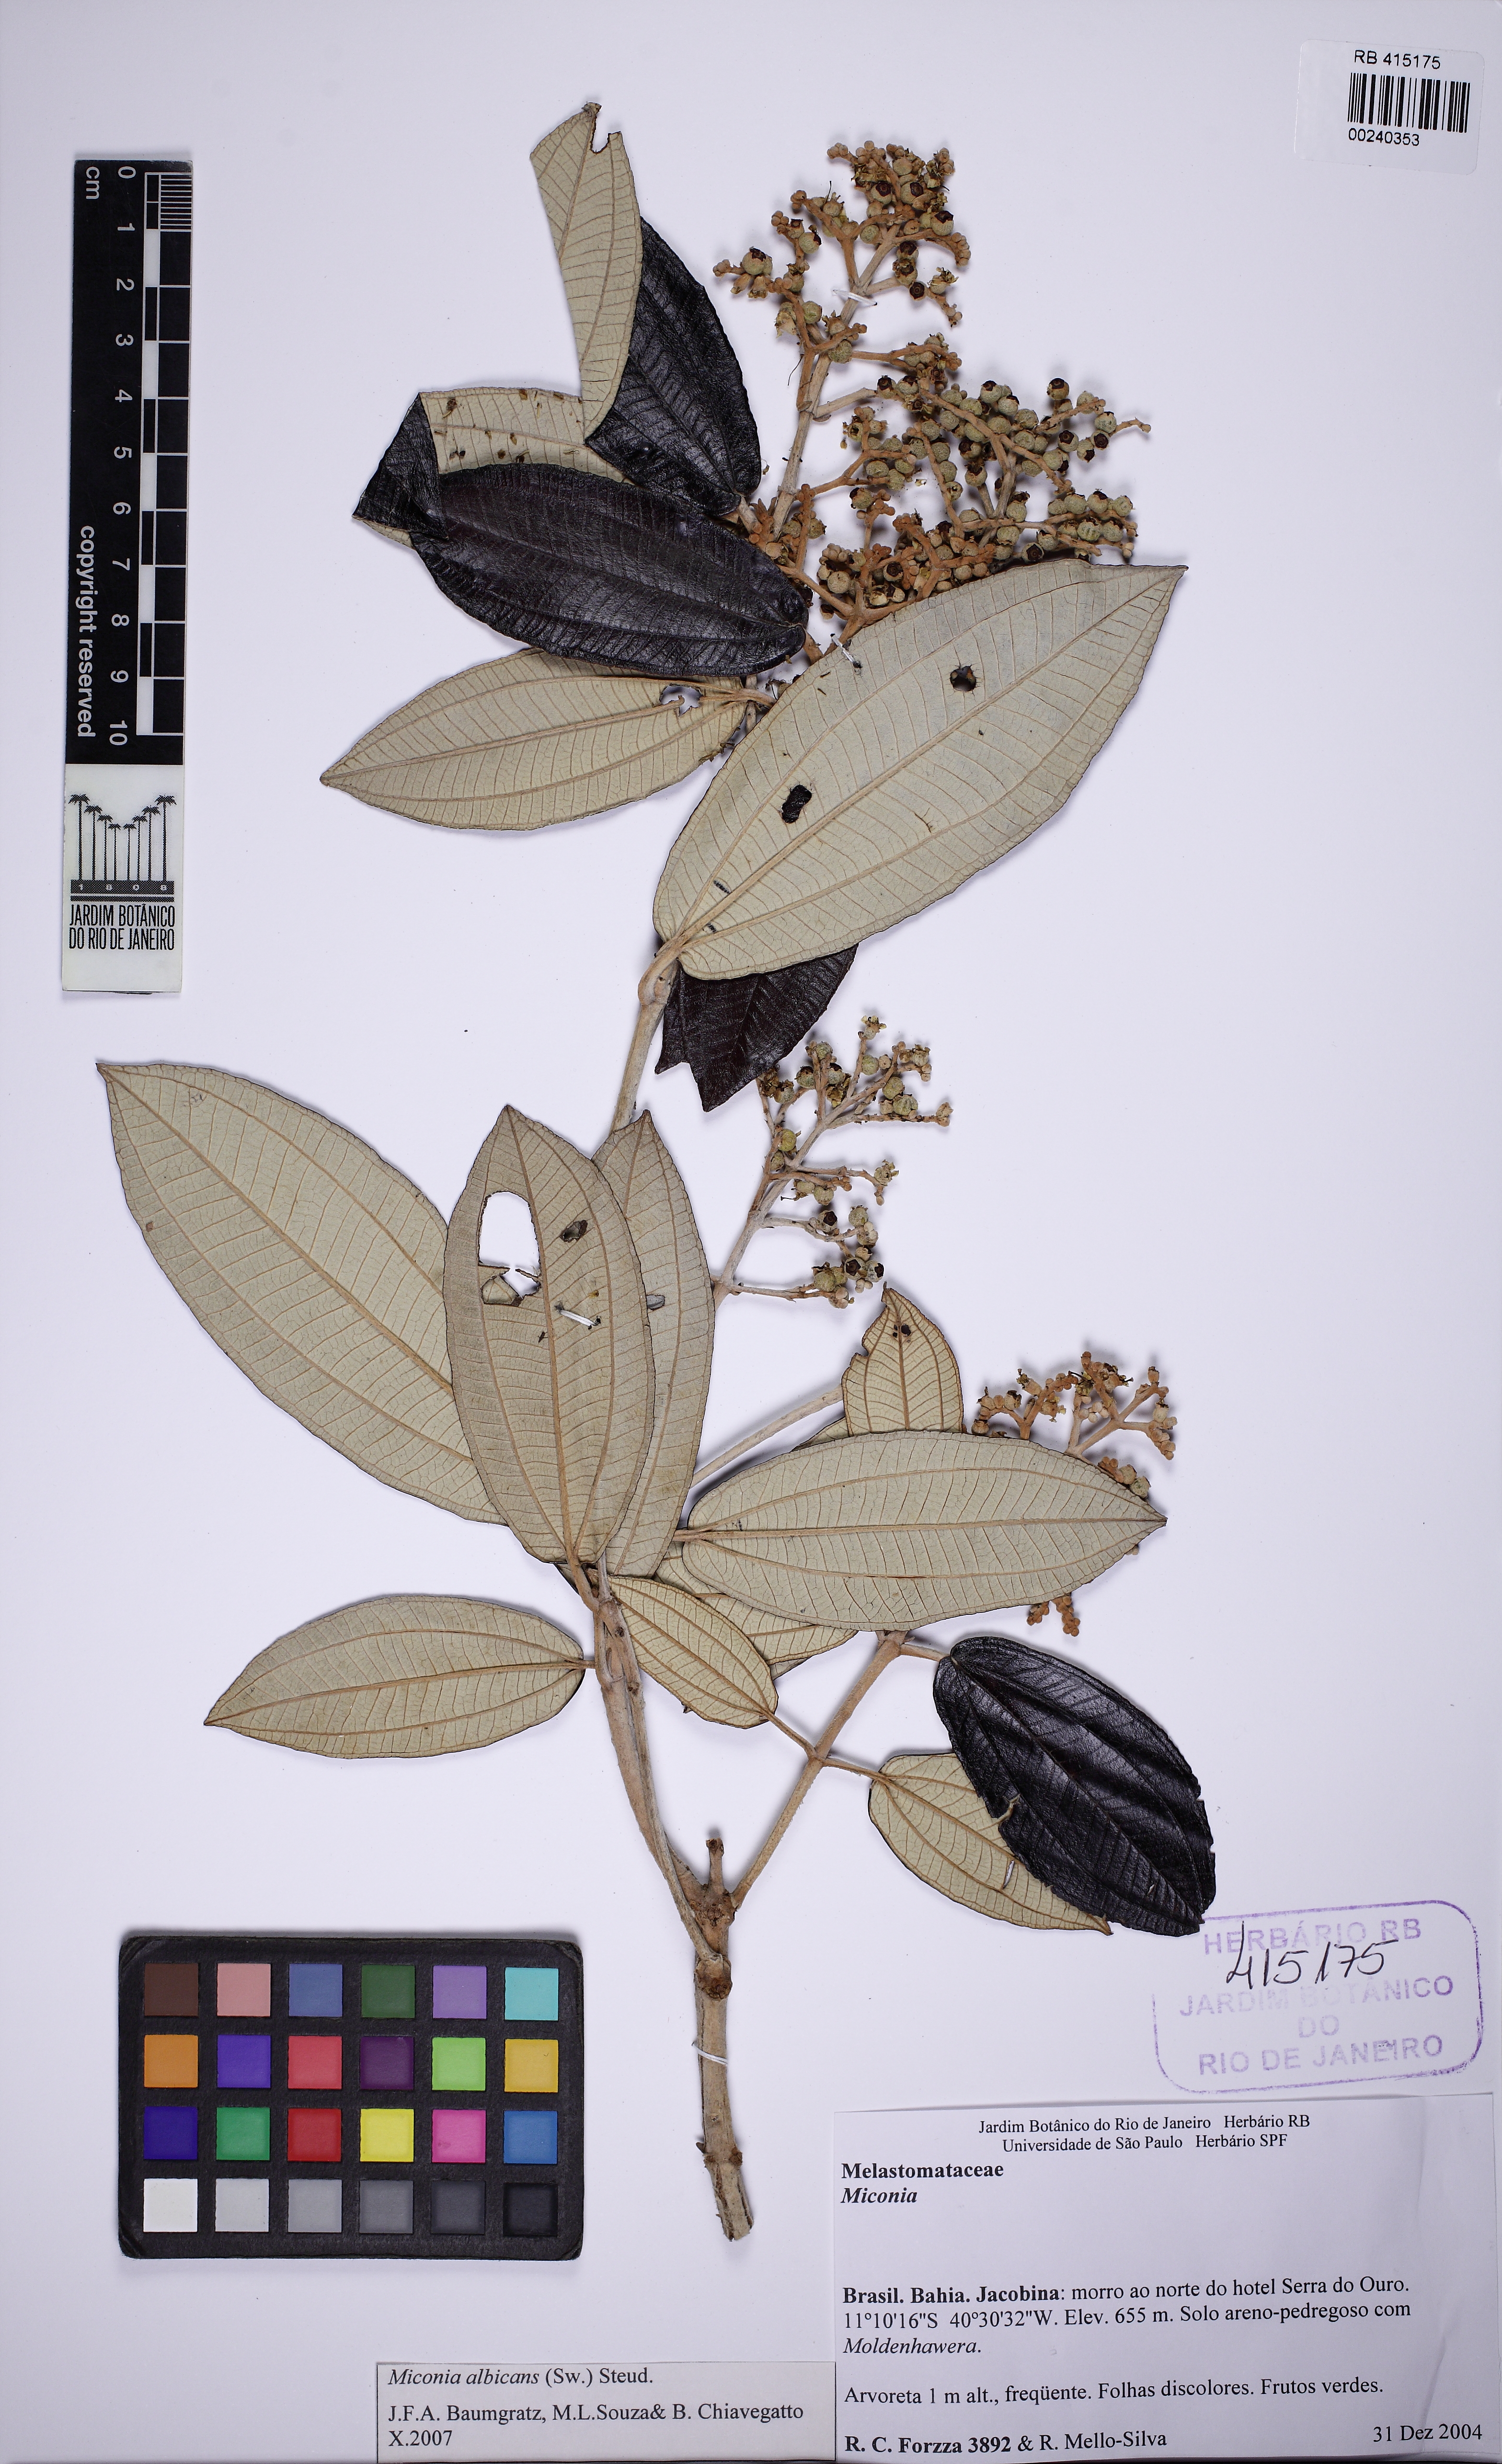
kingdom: Plantae
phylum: Tracheophyta
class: Magnoliopsida
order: Myrtales
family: Melastomataceae
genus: Miconia
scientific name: Miconia albicans
